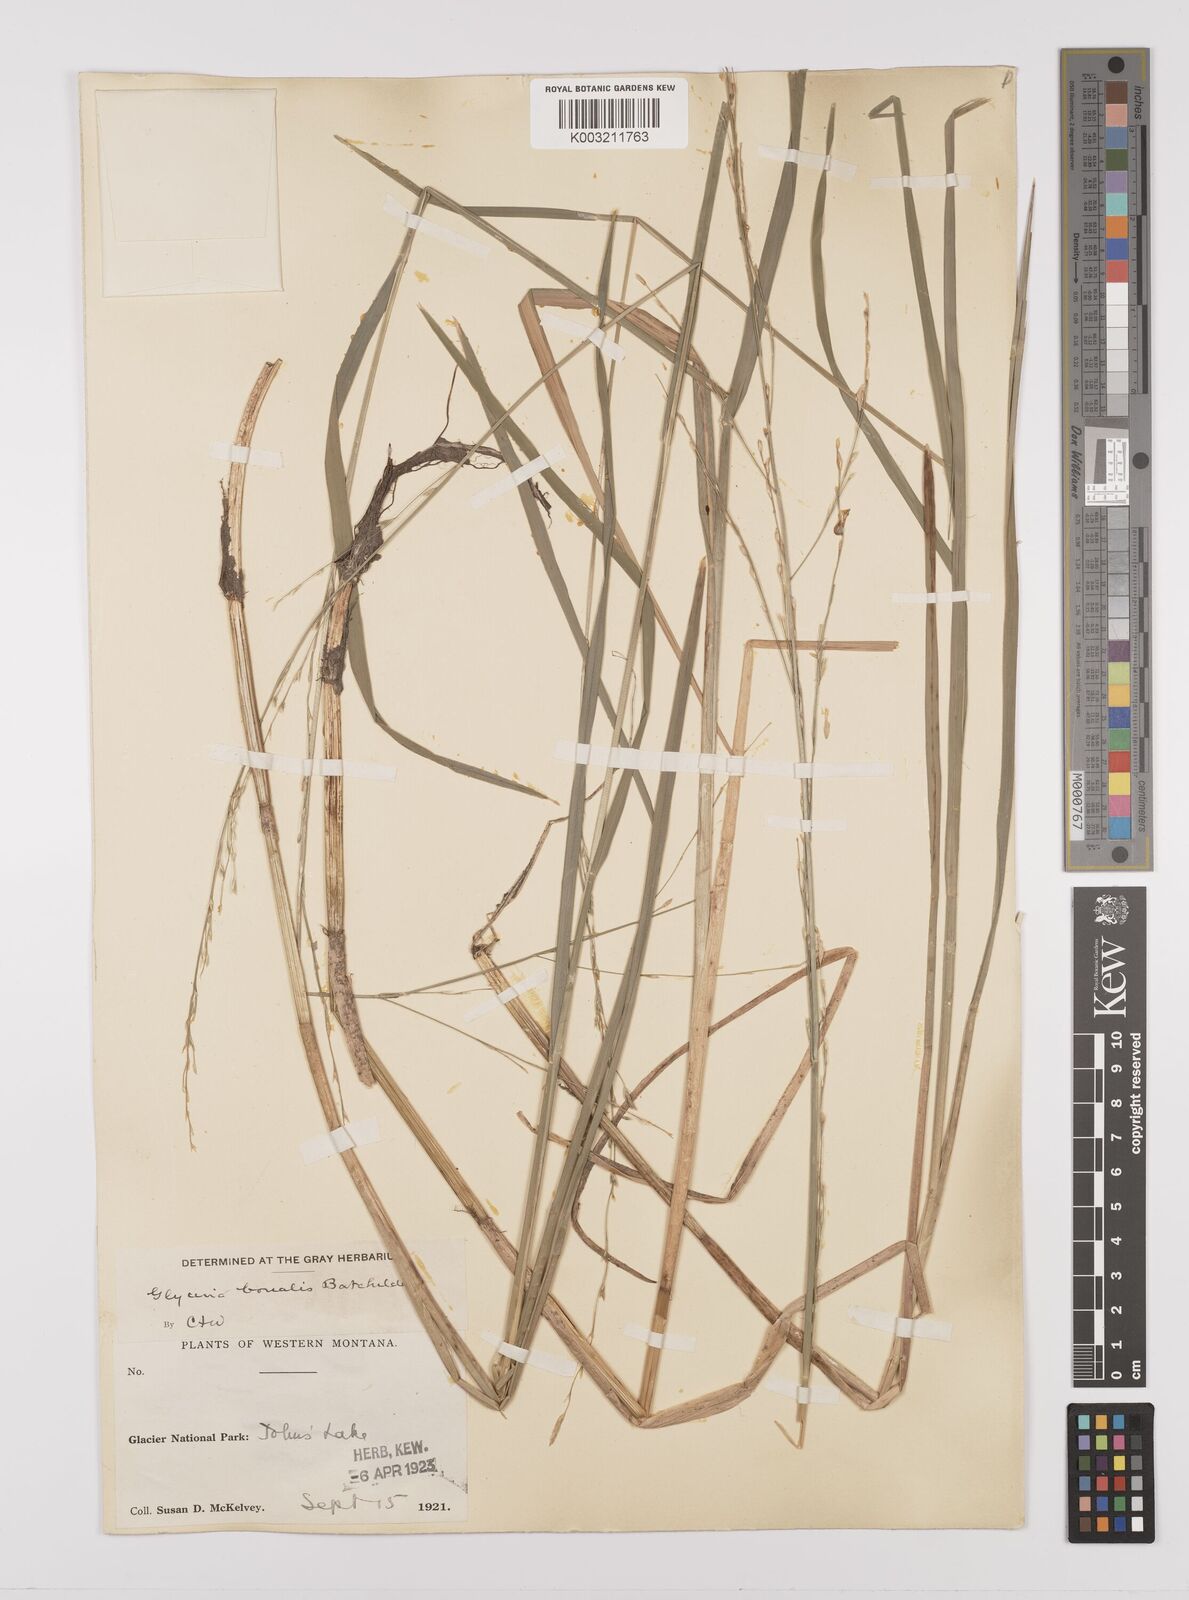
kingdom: Plantae
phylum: Tracheophyta
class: Liliopsida
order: Poales
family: Poaceae
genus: Glyceria
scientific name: Glyceria borealis
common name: Boreal glyceria
